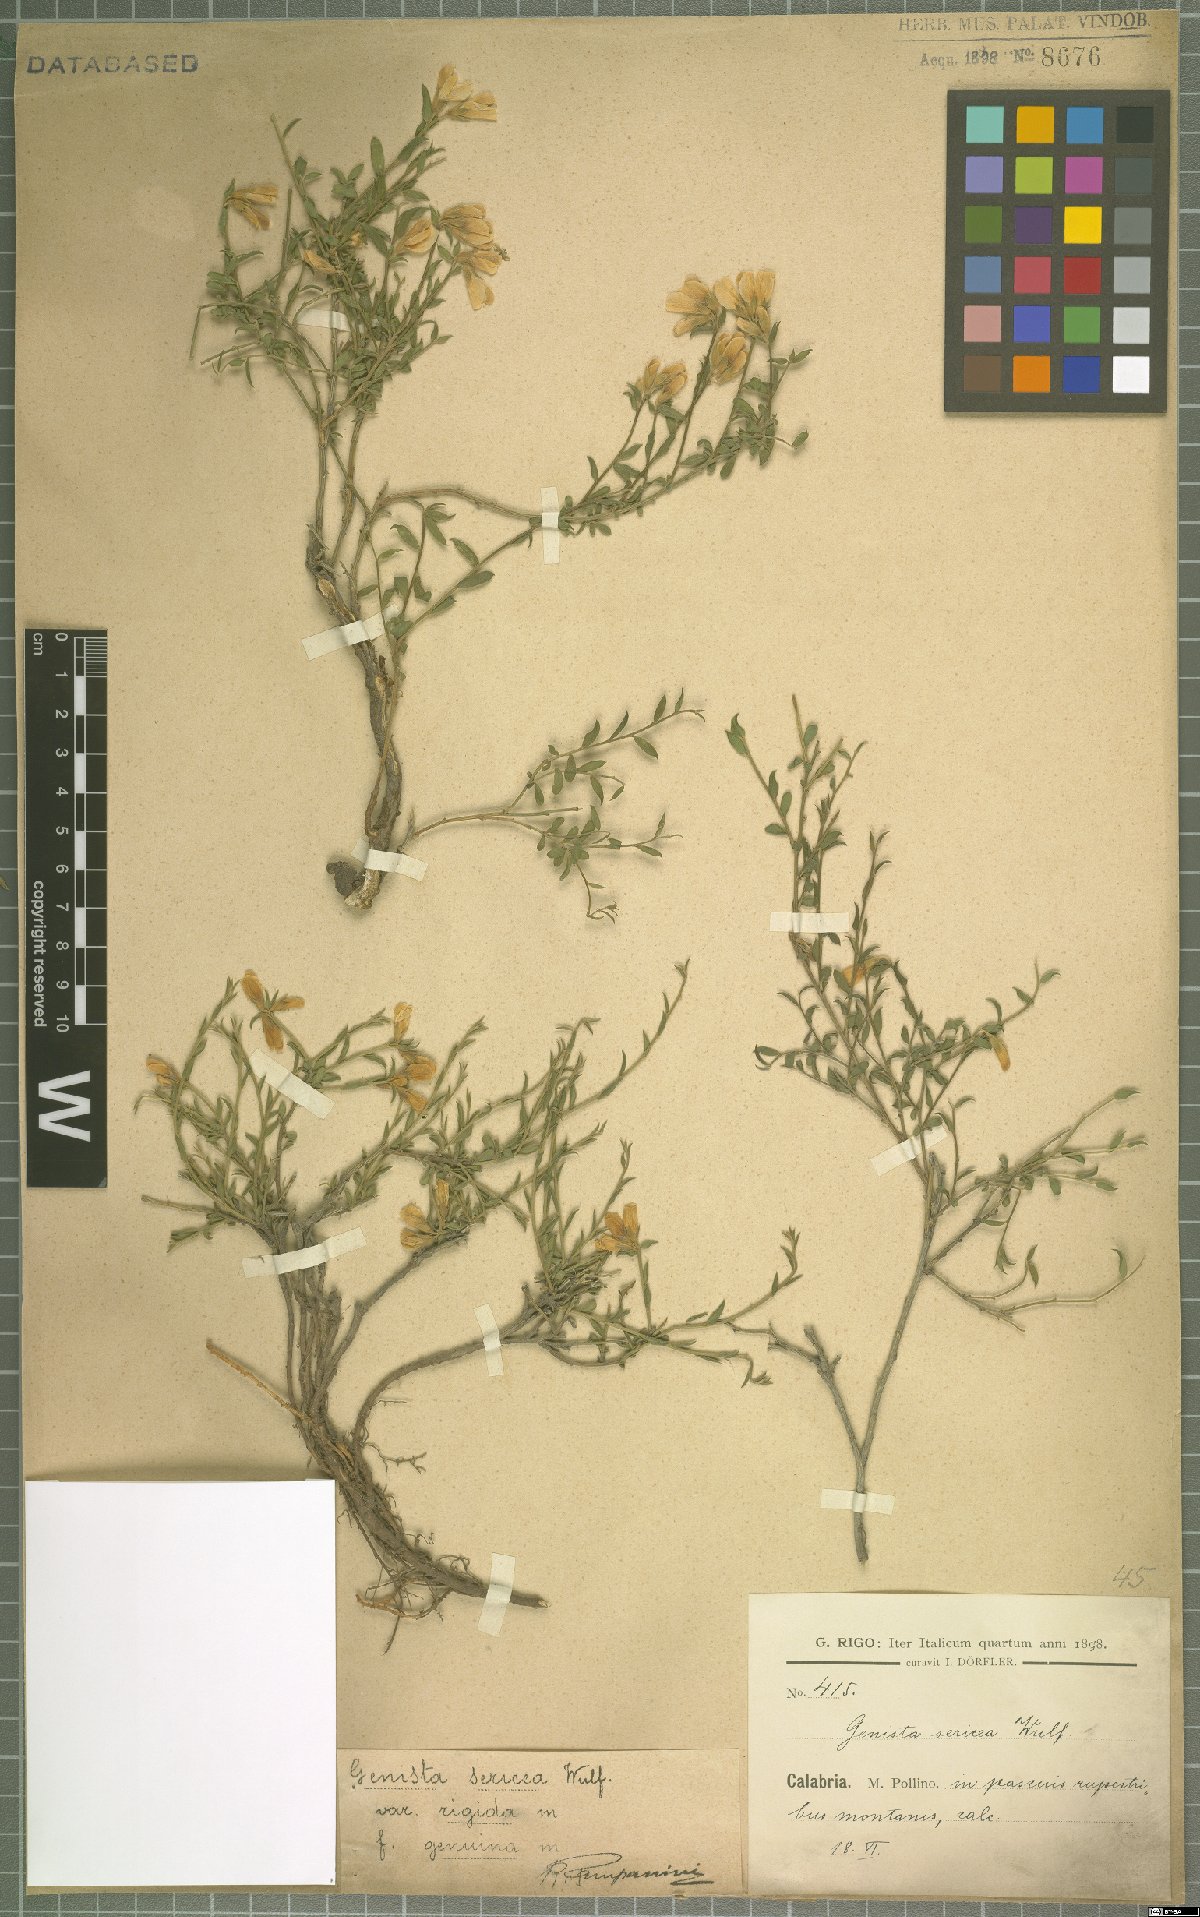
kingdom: Plantae
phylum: Tracheophyta
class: Magnoliopsida
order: Fabales
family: Fabaceae
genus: Genista
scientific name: Genista sericea
